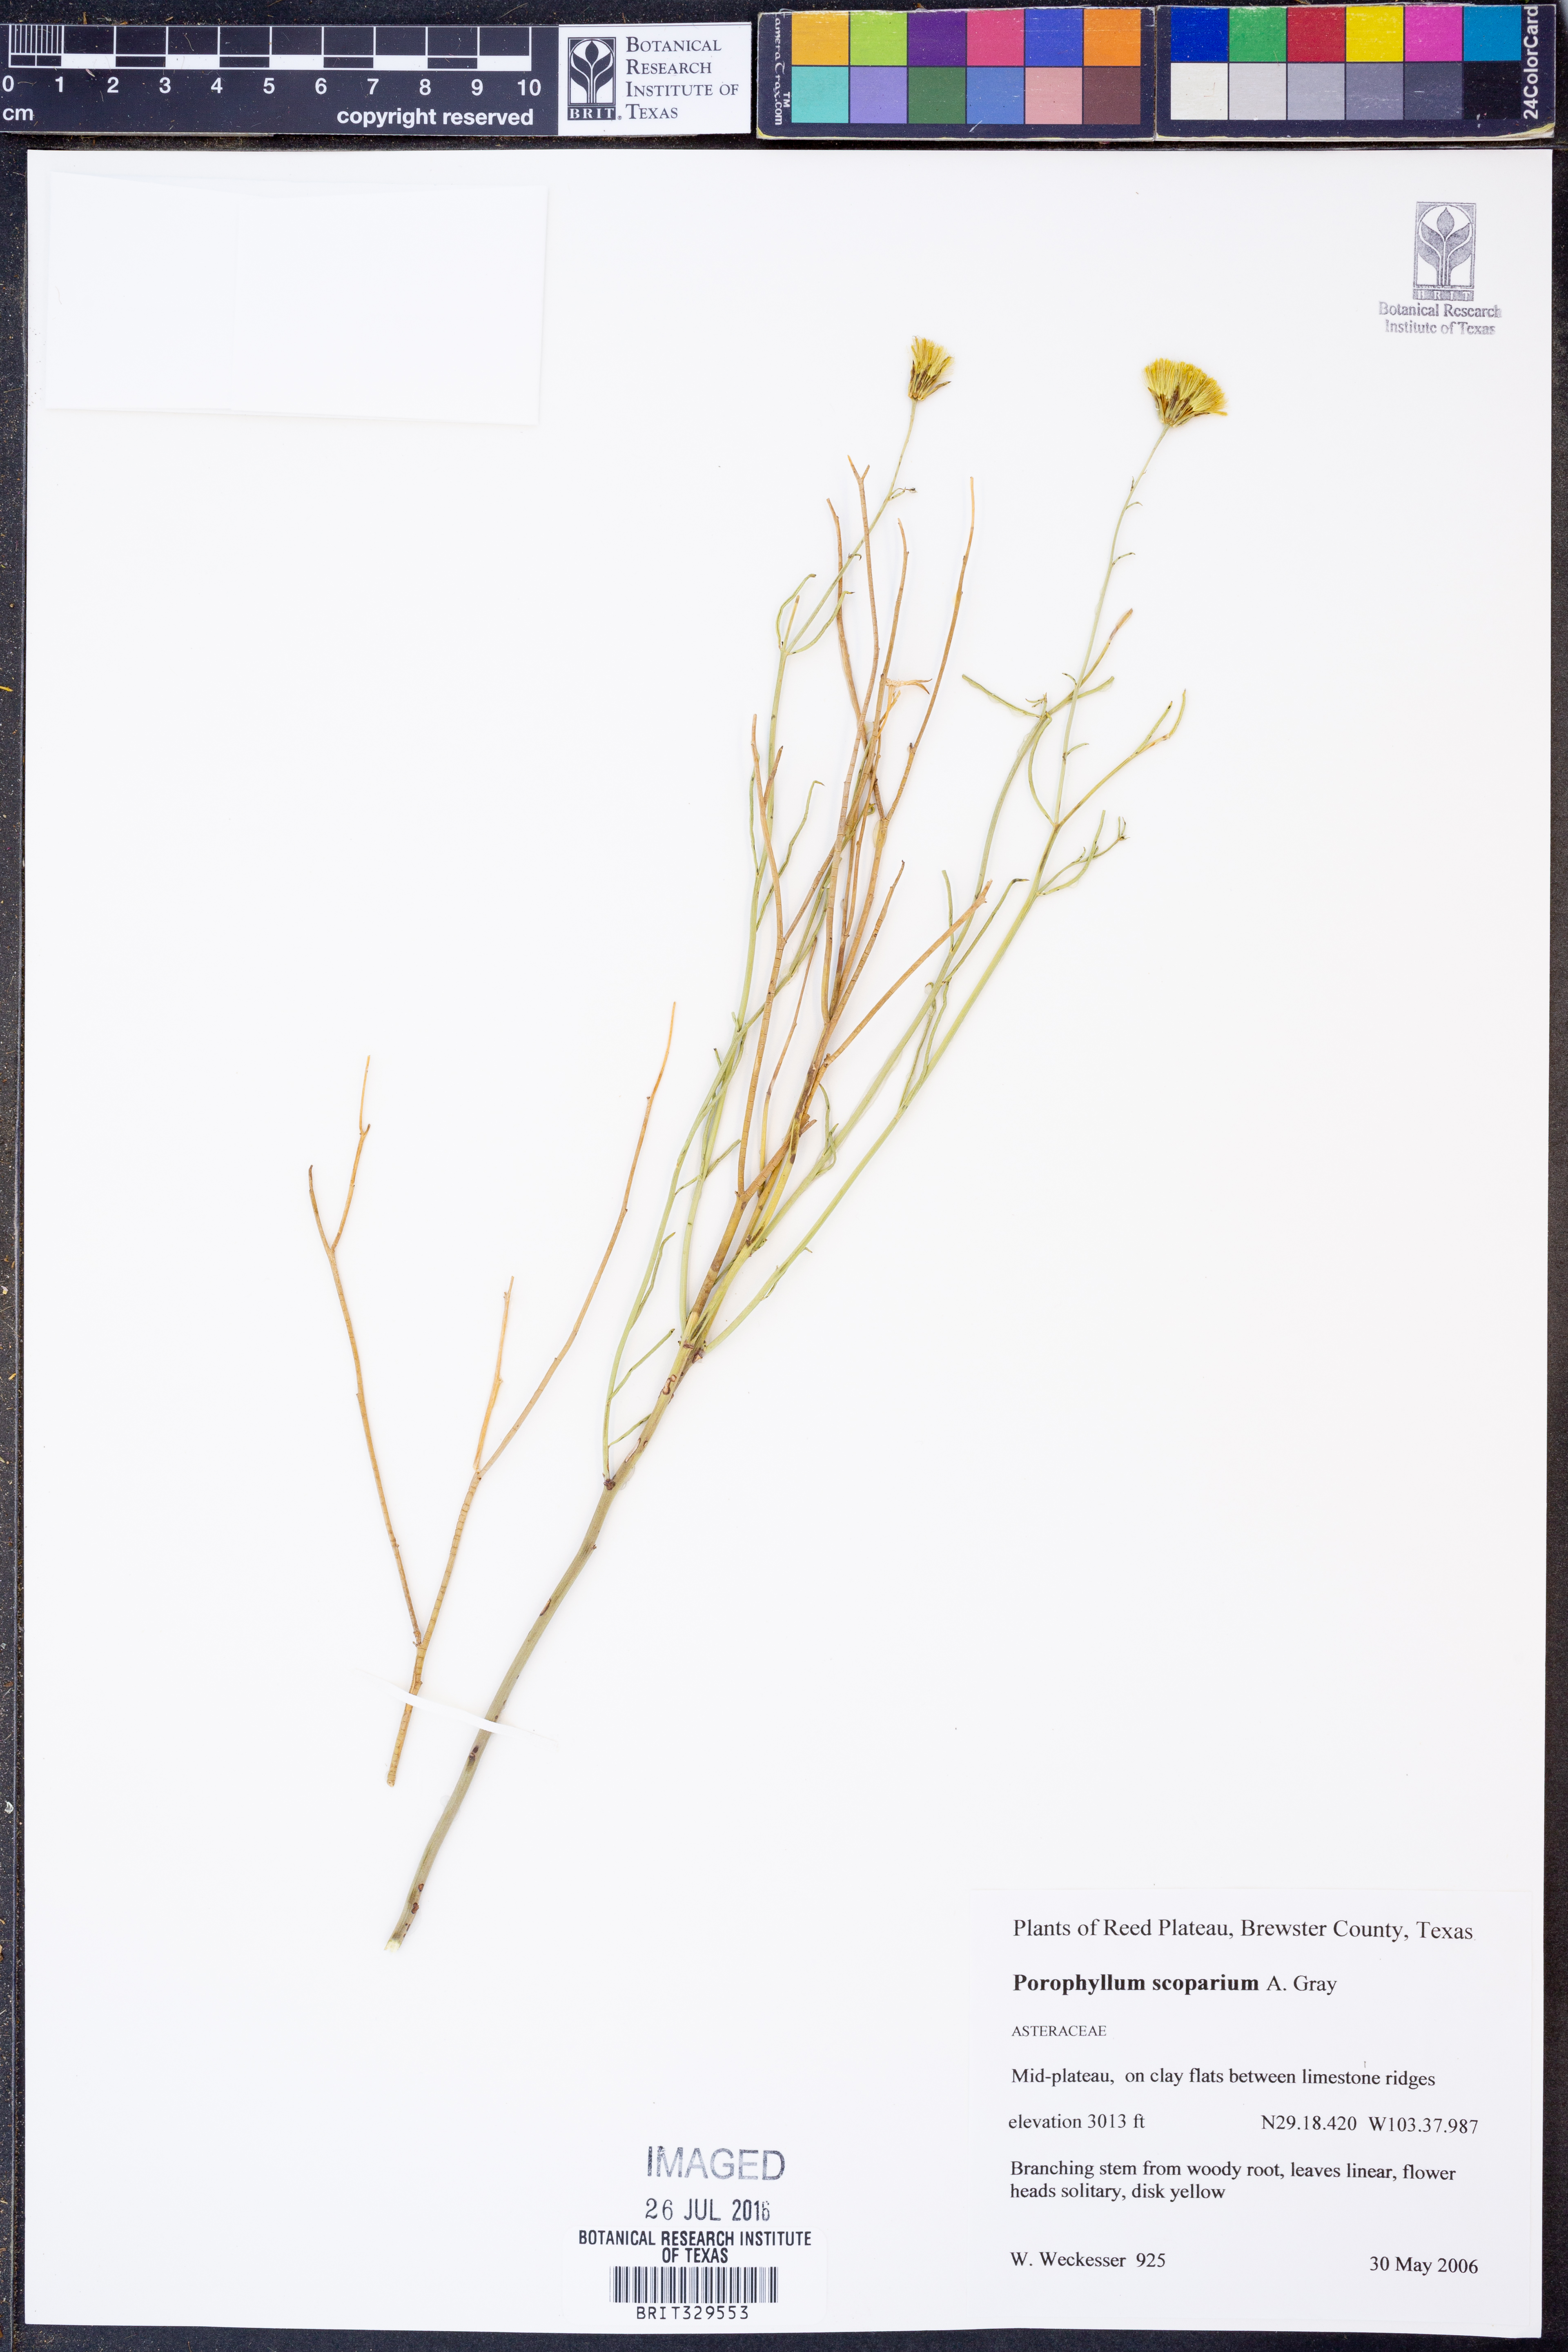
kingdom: Plantae
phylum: Tracheophyta
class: Magnoliopsida
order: Asterales
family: Asteraceae
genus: Porophyllum
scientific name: Porophyllum scoparium
